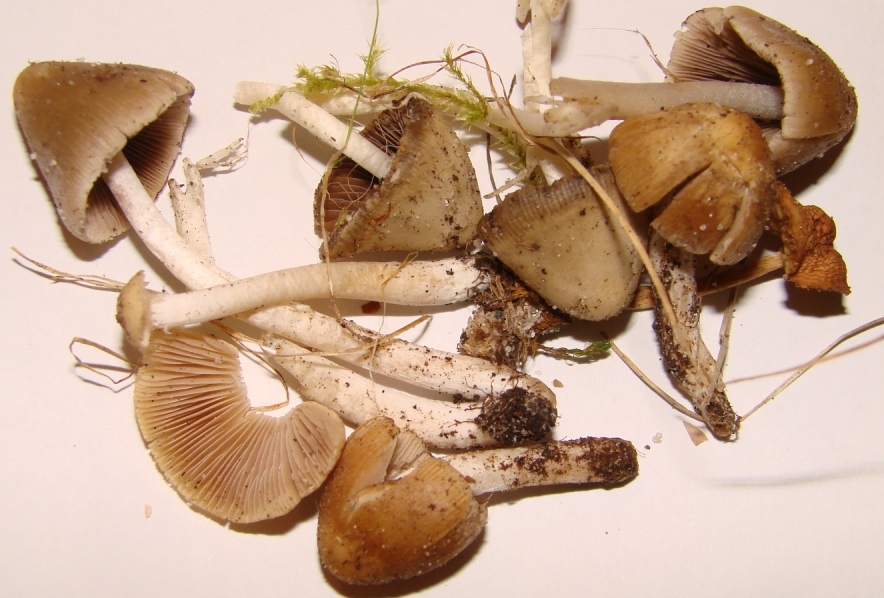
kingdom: Fungi
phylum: Basidiomycota
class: Agaricomycetes
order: Agaricales
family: Psathyrellaceae
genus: Psathyrella
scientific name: Psathyrella obtusata
